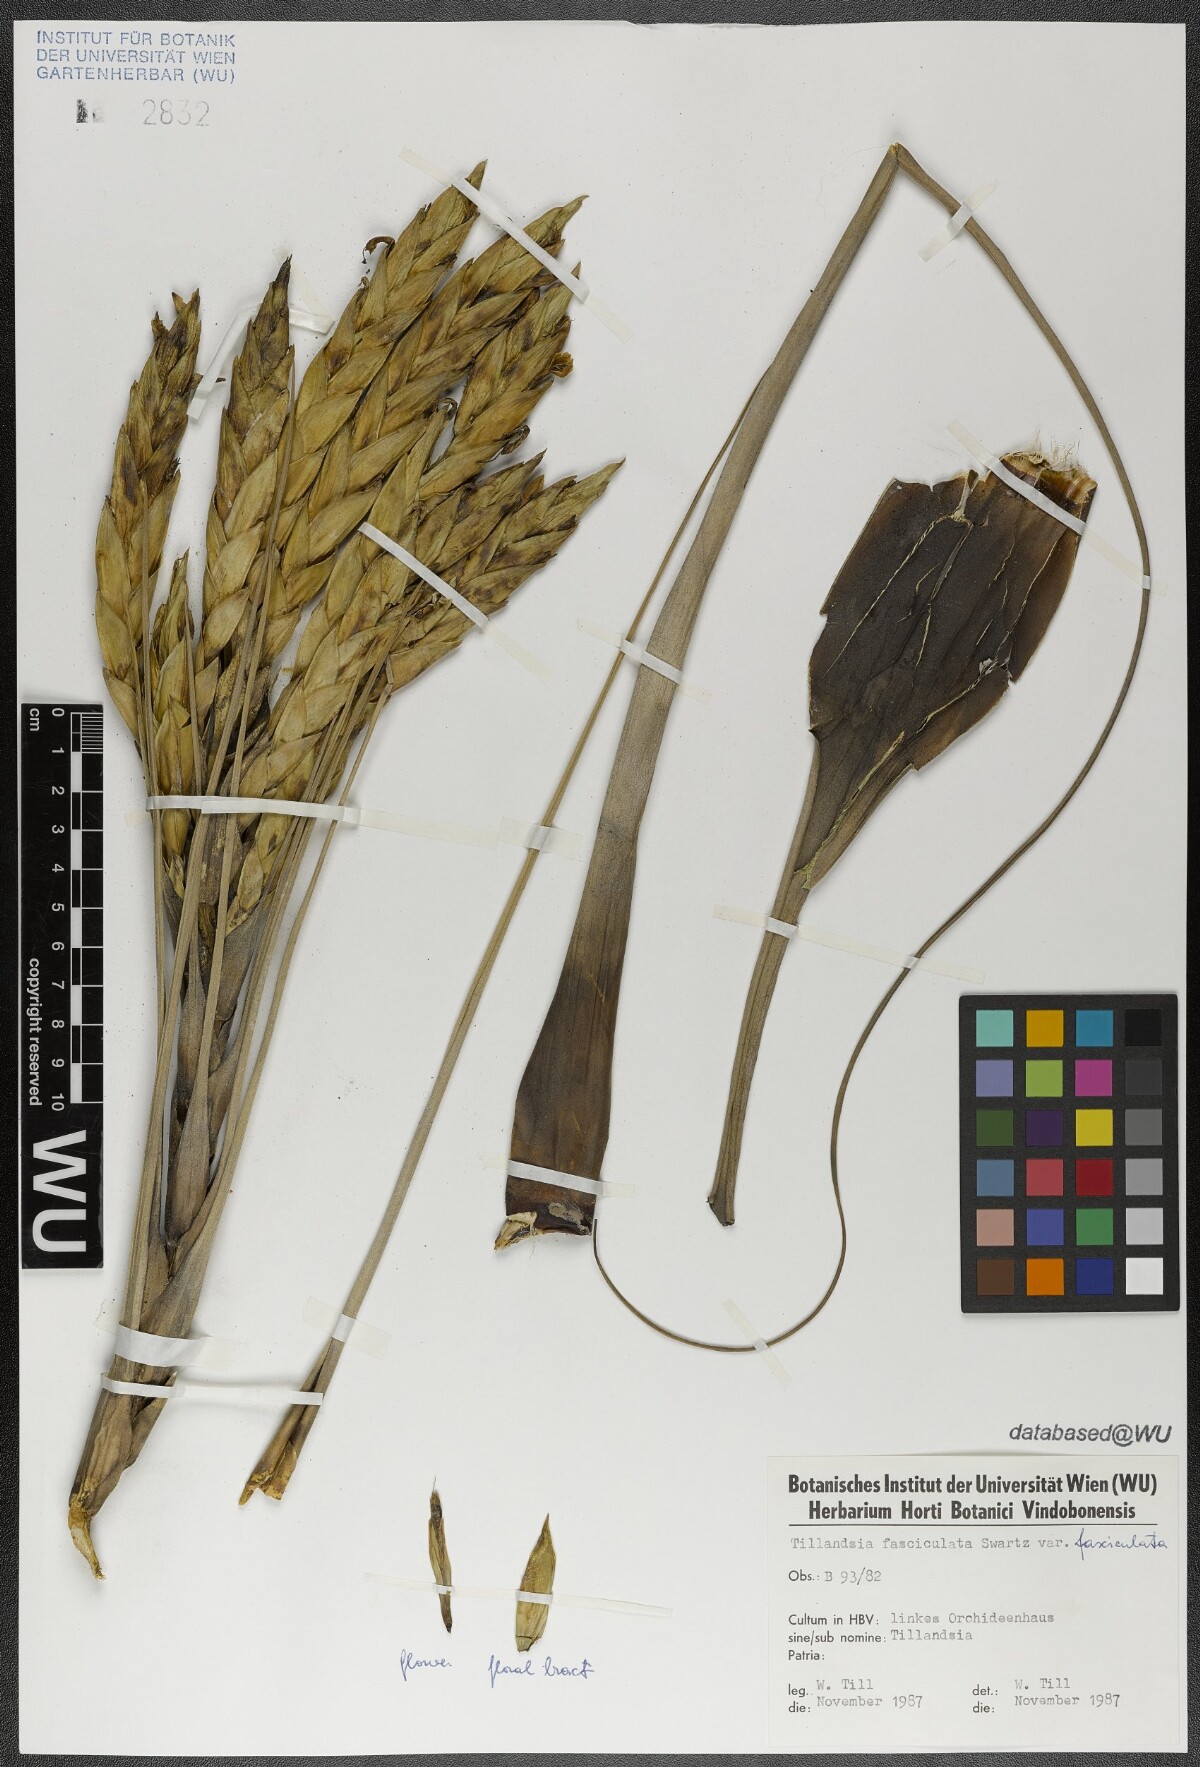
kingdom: Plantae
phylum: Tracheophyta
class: Liliopsida
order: Poales
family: Bromeliaceae
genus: Tillandsia
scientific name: Tillandsia fasciculata
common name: Giant airplant
